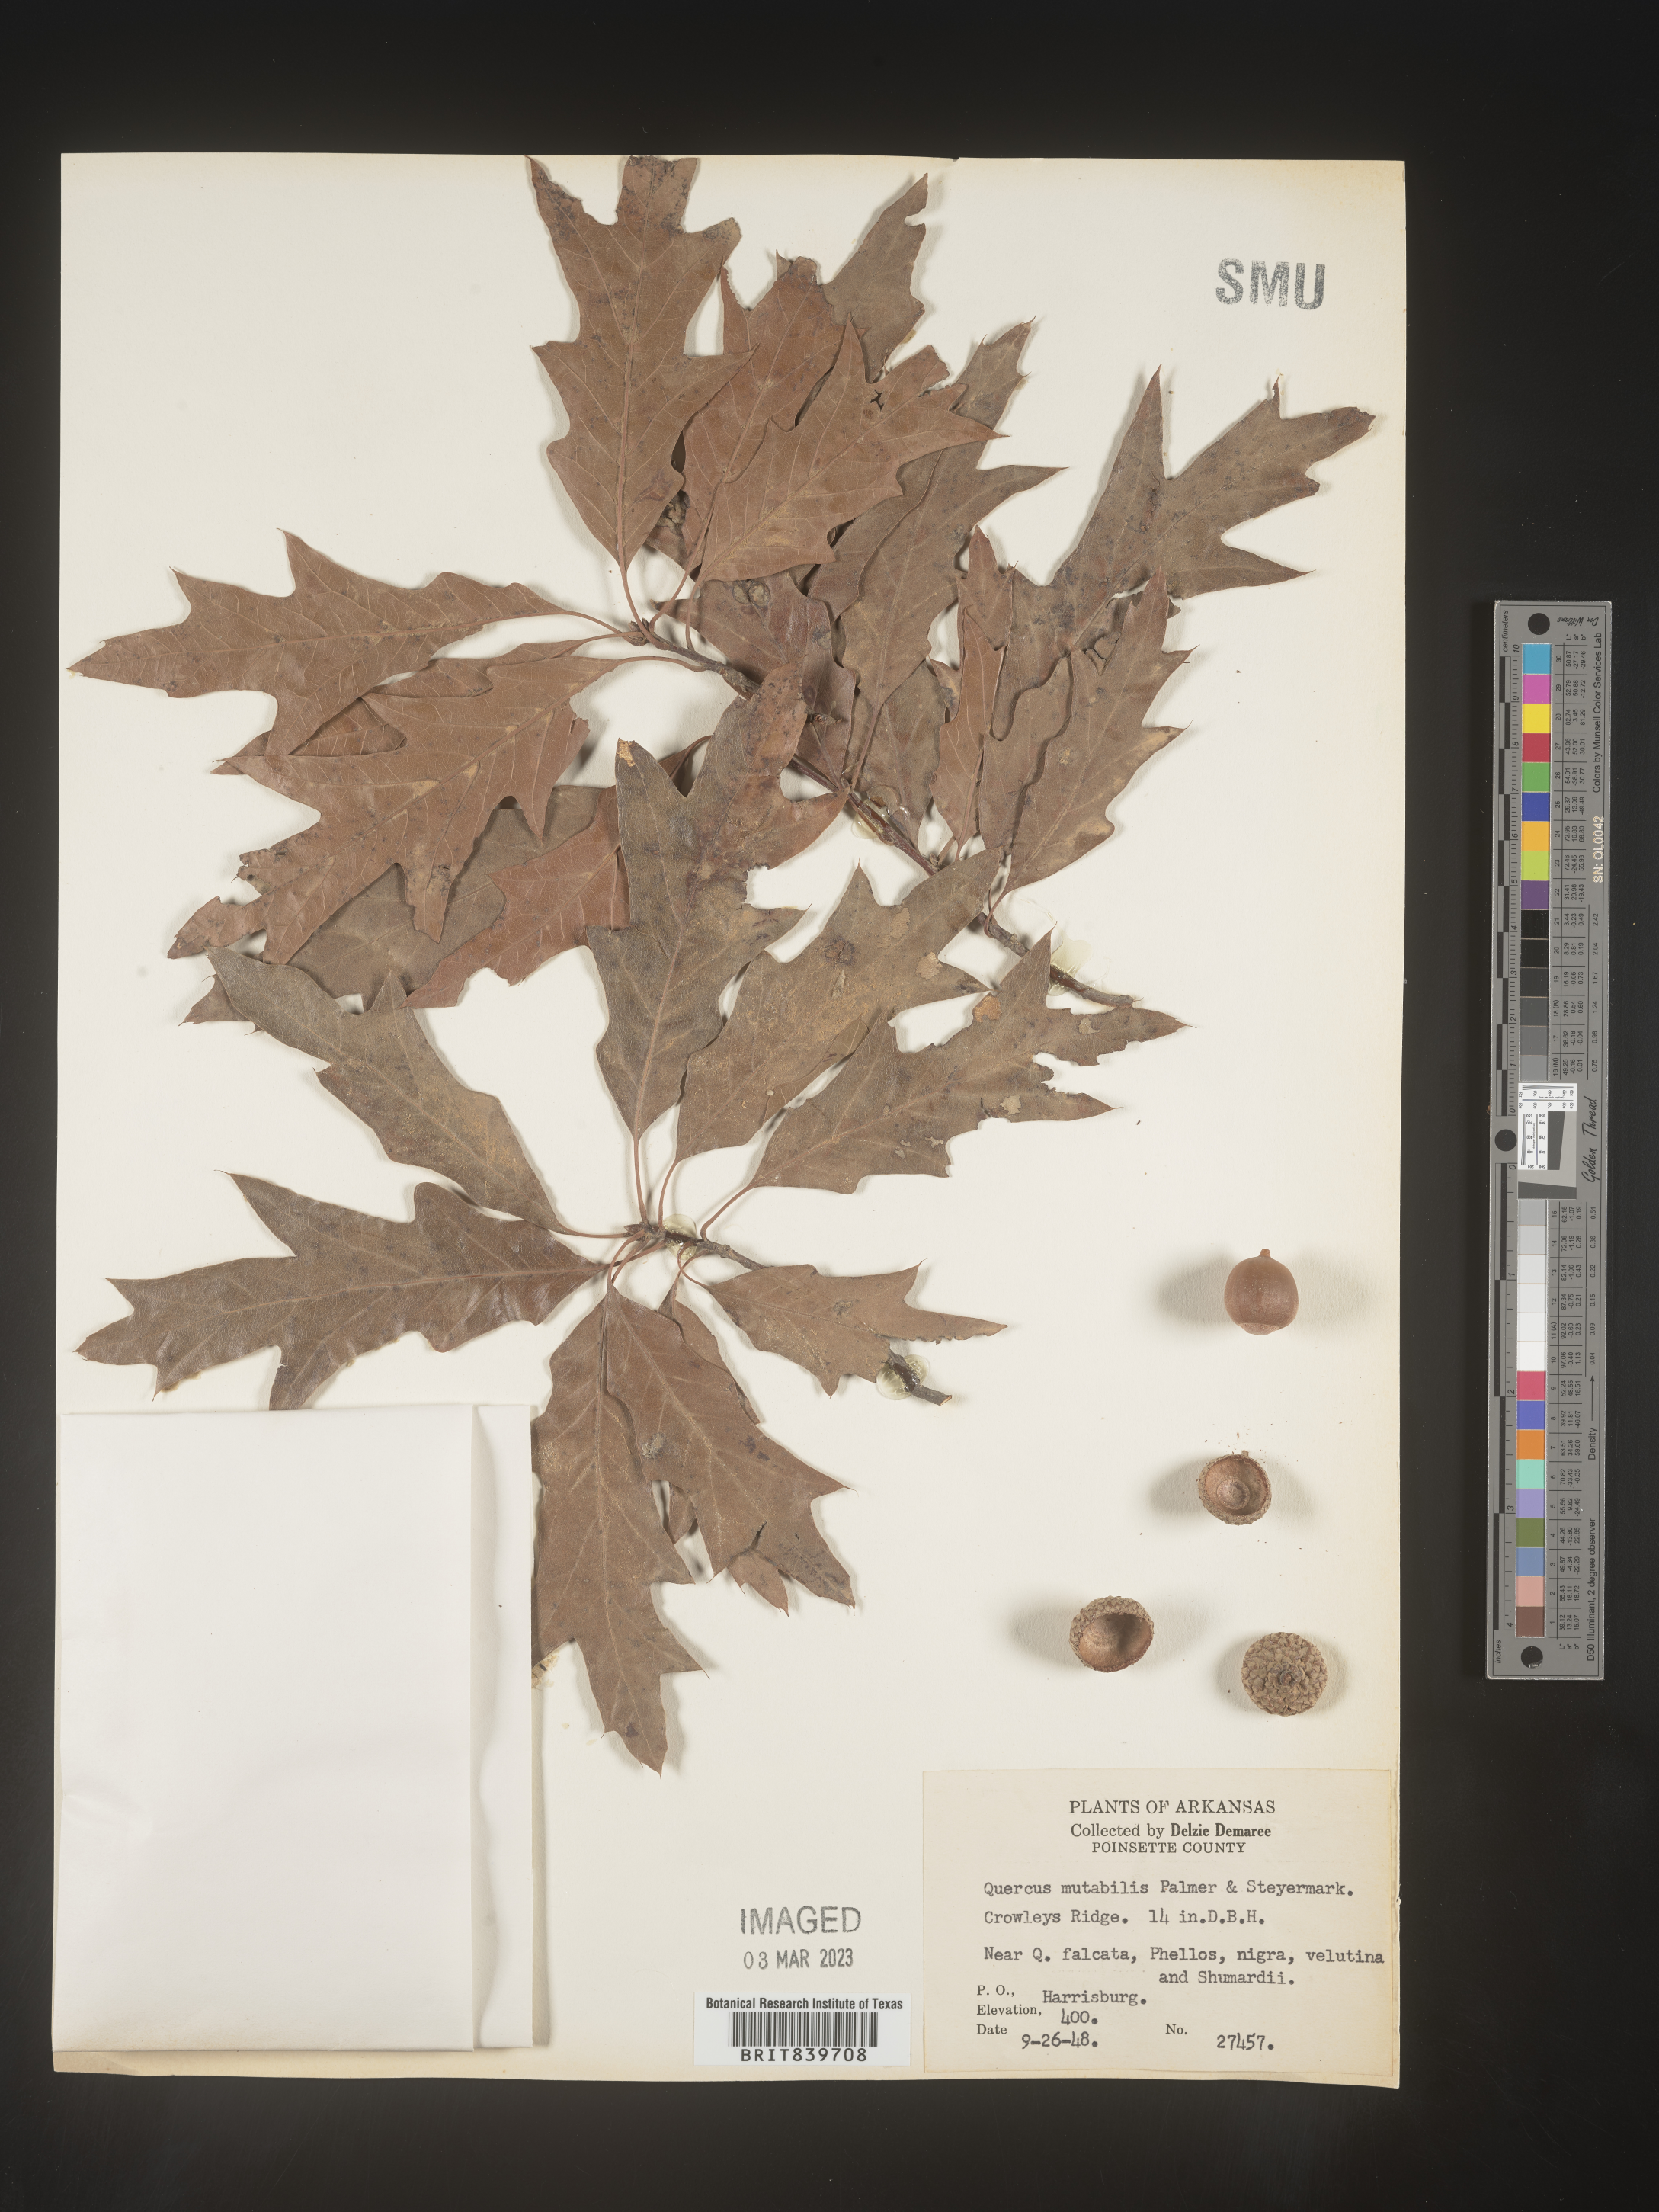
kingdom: Plantae
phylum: Tracheophyta
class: Magnoliopsida
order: Fagales
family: Fagaceae
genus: Quercus
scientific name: Quercus
